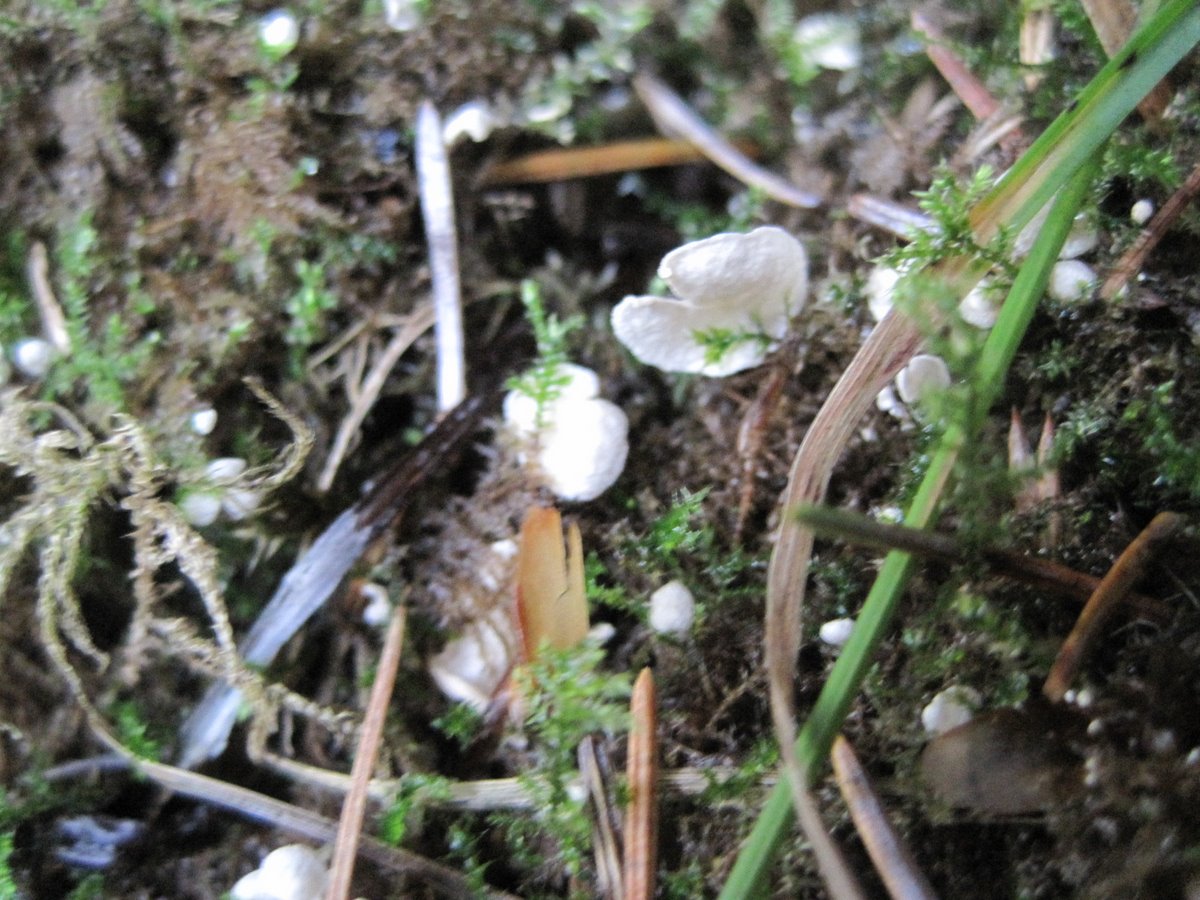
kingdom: Fungi
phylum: Basidiomycota
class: Agaricomycetes
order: Agaricales
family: Hygrophoraceae
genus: Arrhenia
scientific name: Arrhenia retiruga
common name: lille fontænehat
